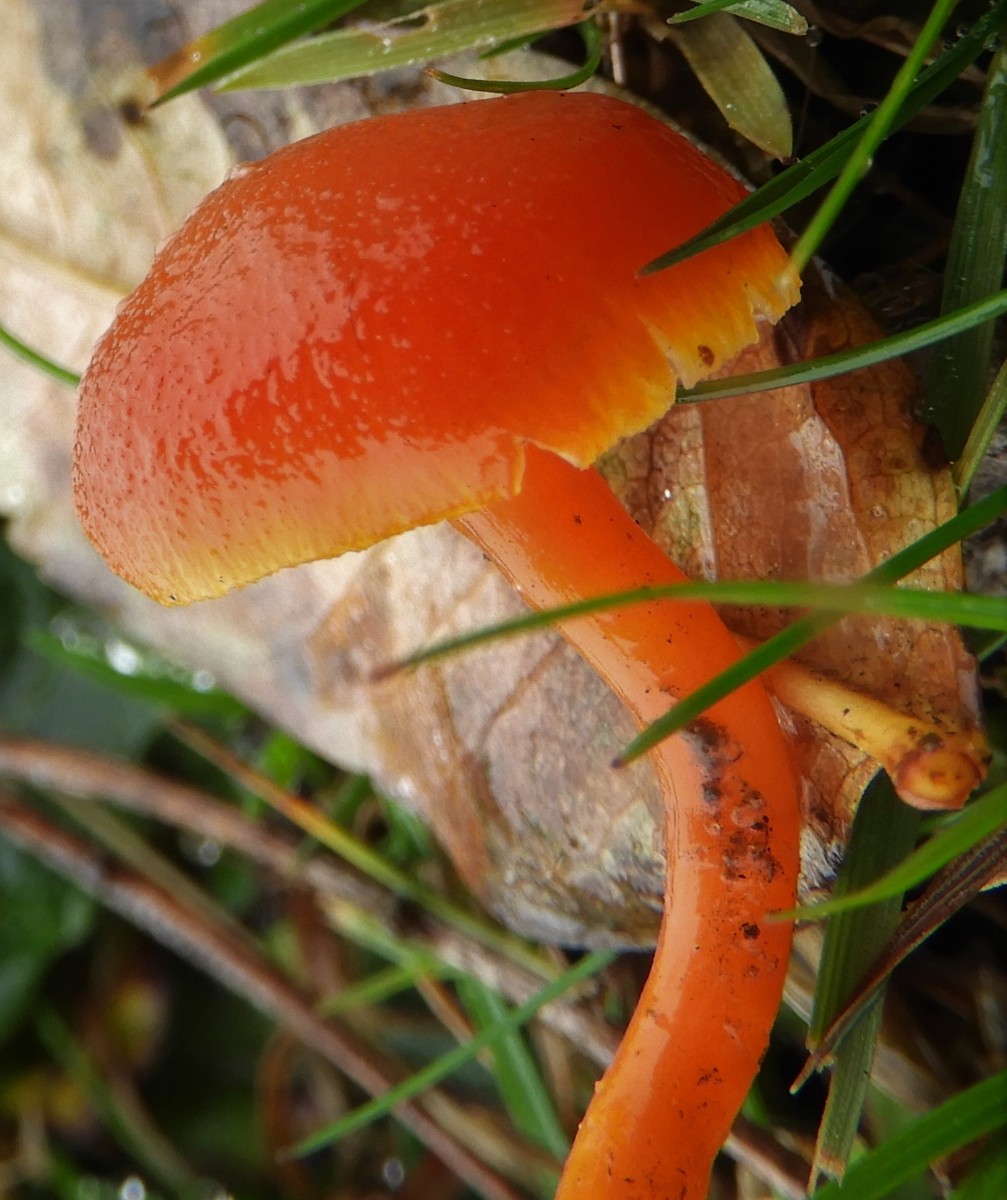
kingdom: Fungi
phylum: Basidiomycota
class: Agaricomycetes
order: Agaricales
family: Hygrophoraceae
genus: Hygrocybe
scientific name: Hygrocybe miniata
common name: mønje-vokshat
